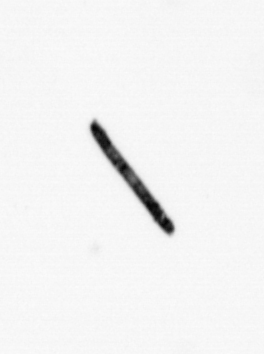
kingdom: Bacteria
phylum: Cyanobacteria
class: Cyanobacteriia
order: Cyanobacteriales
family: Microcoleaceae
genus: Trichodesmium
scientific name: Trichodesmium
